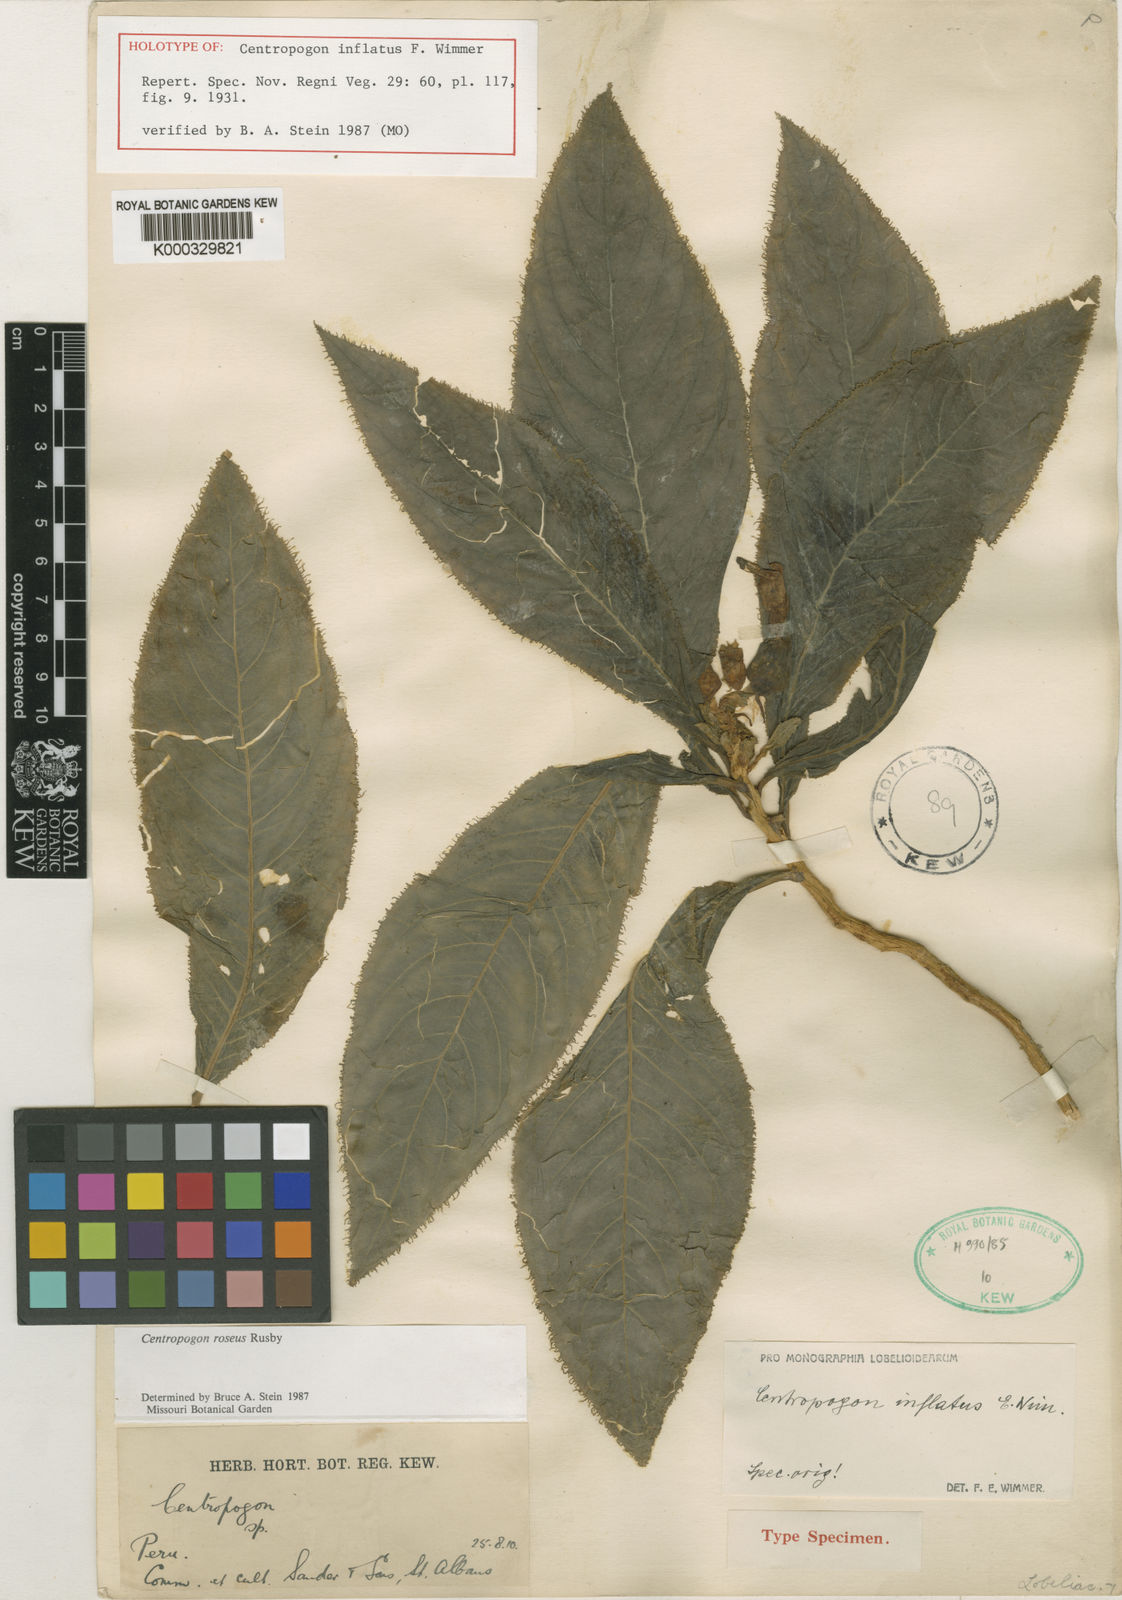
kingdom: Plantae
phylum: Tracheophyta
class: Magnoliopsida
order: Asterales
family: Campanulaceae
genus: Centropogon
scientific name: Centropogon roseus
